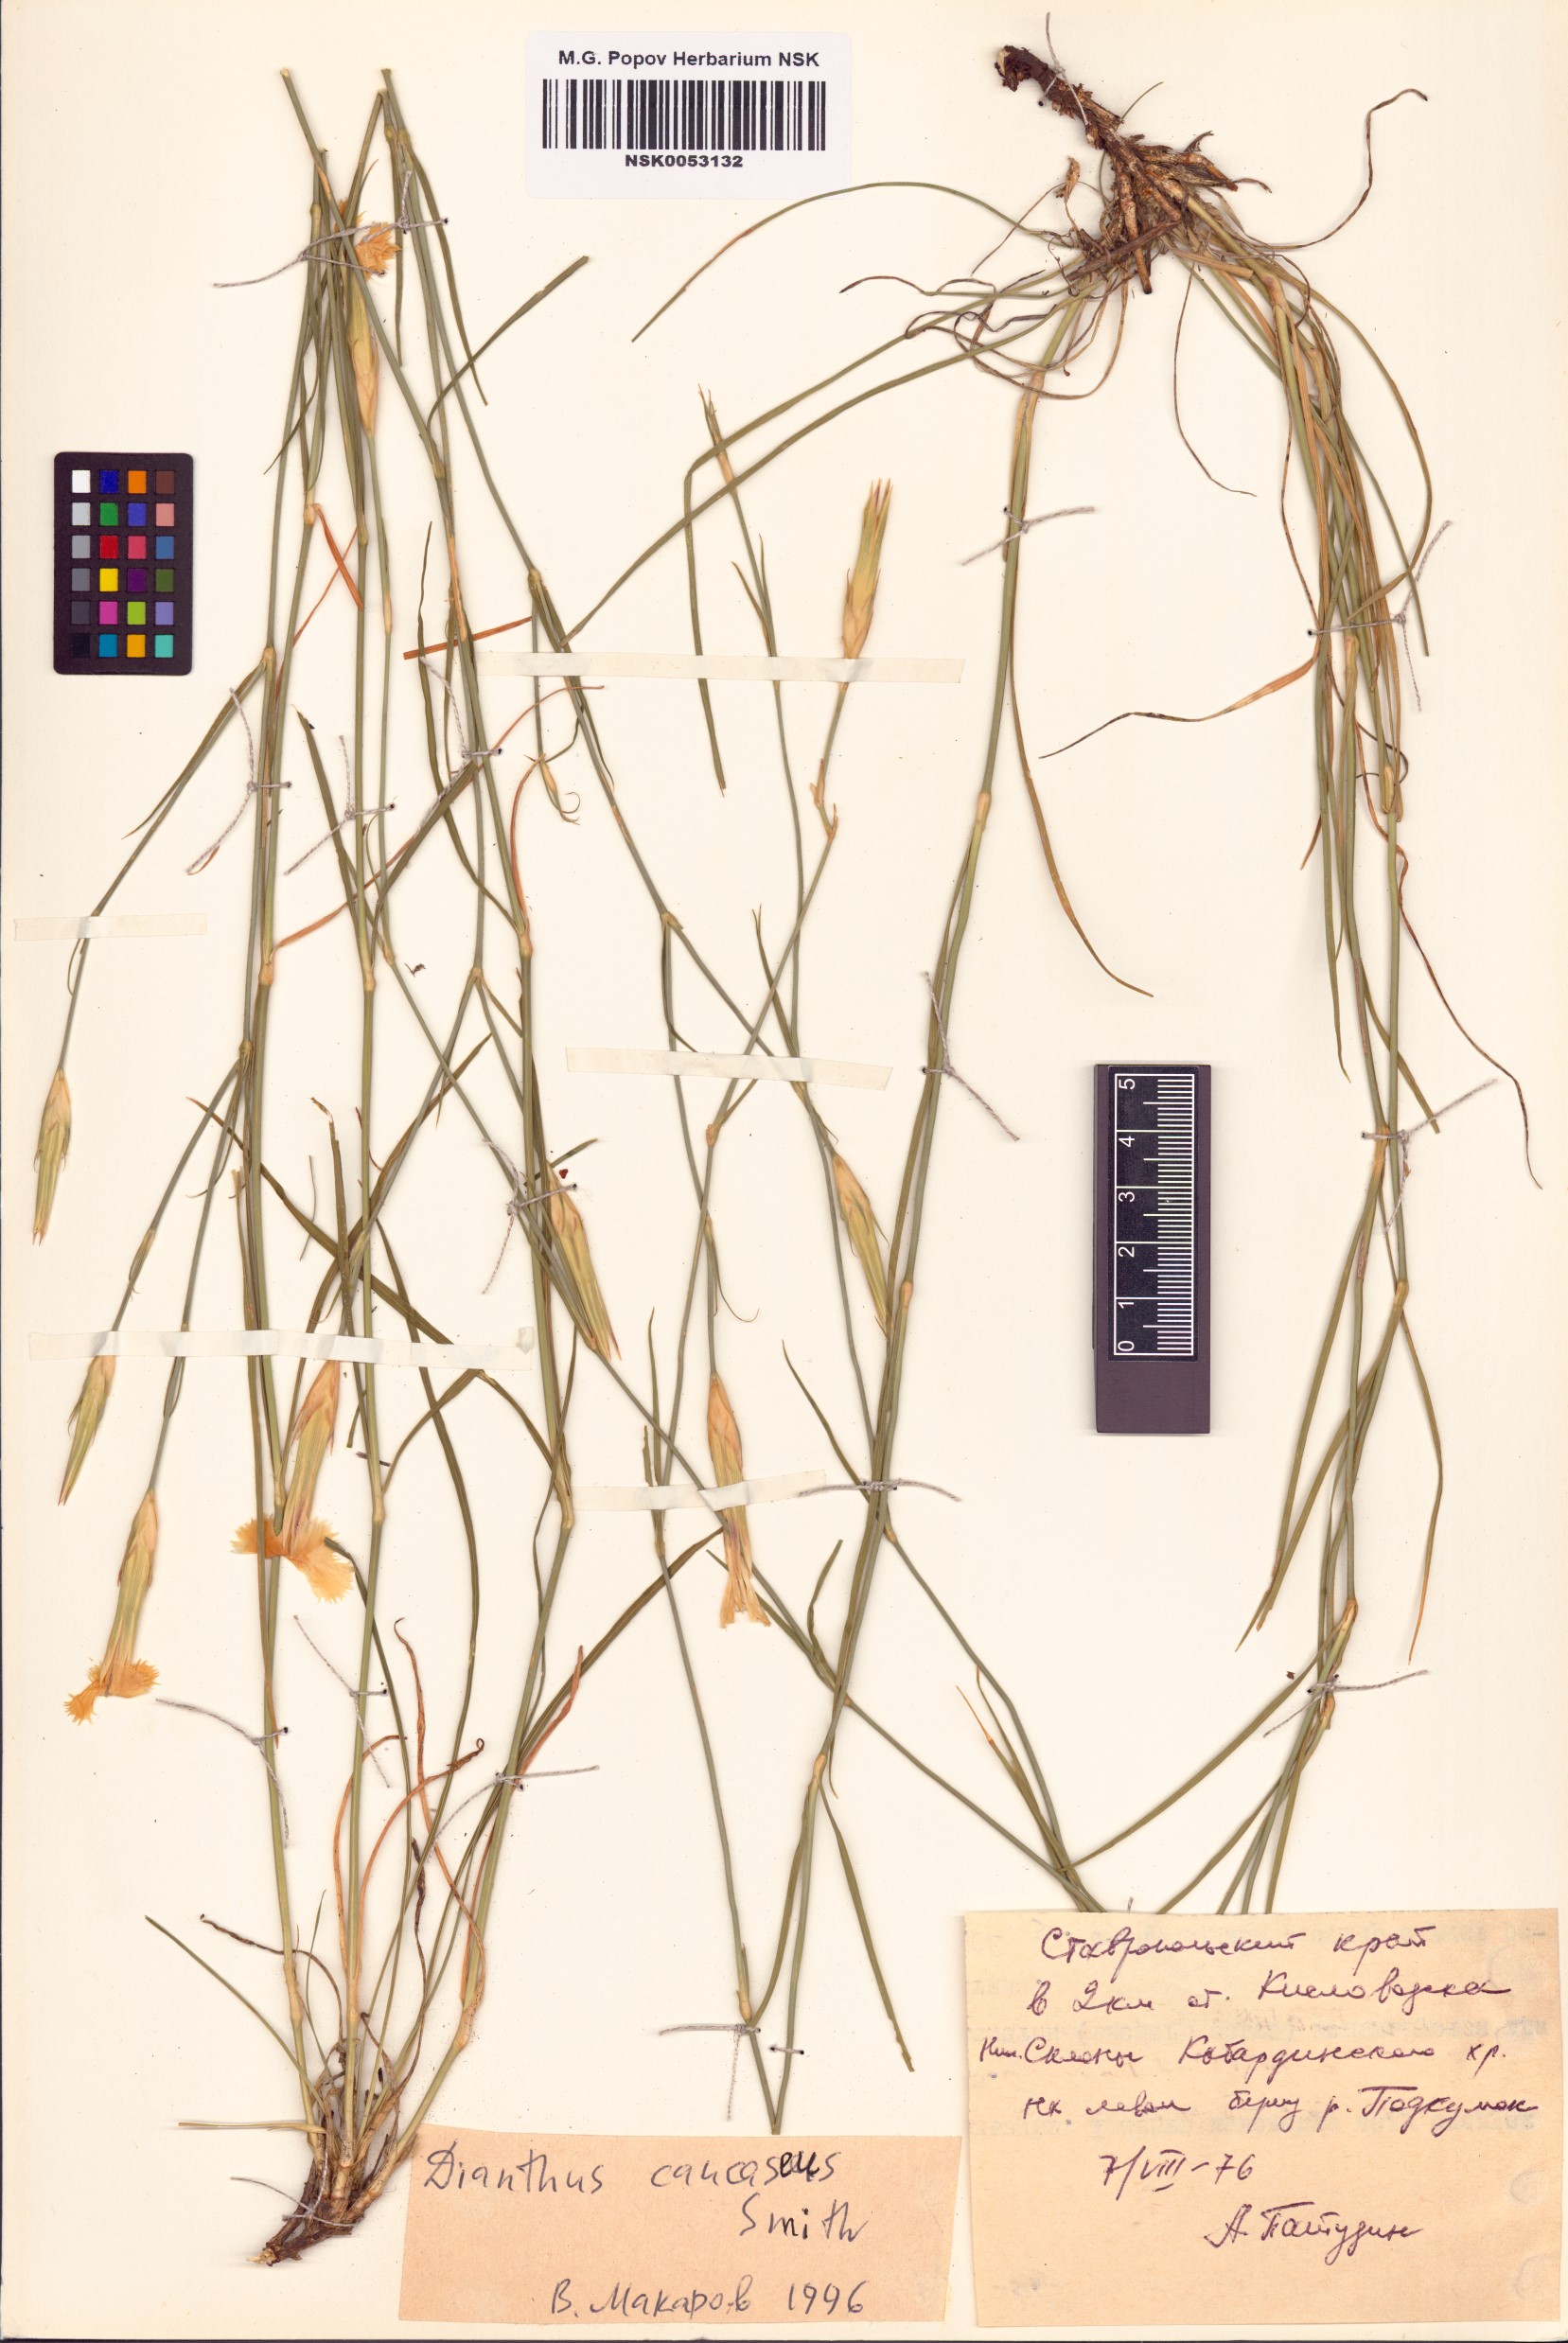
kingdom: Plantae
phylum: Tracheophyta
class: Magnoliopsida
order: Caryophyllales
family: Caryophyllaceae
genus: Dianthus
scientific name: Dianthus caucaseus
